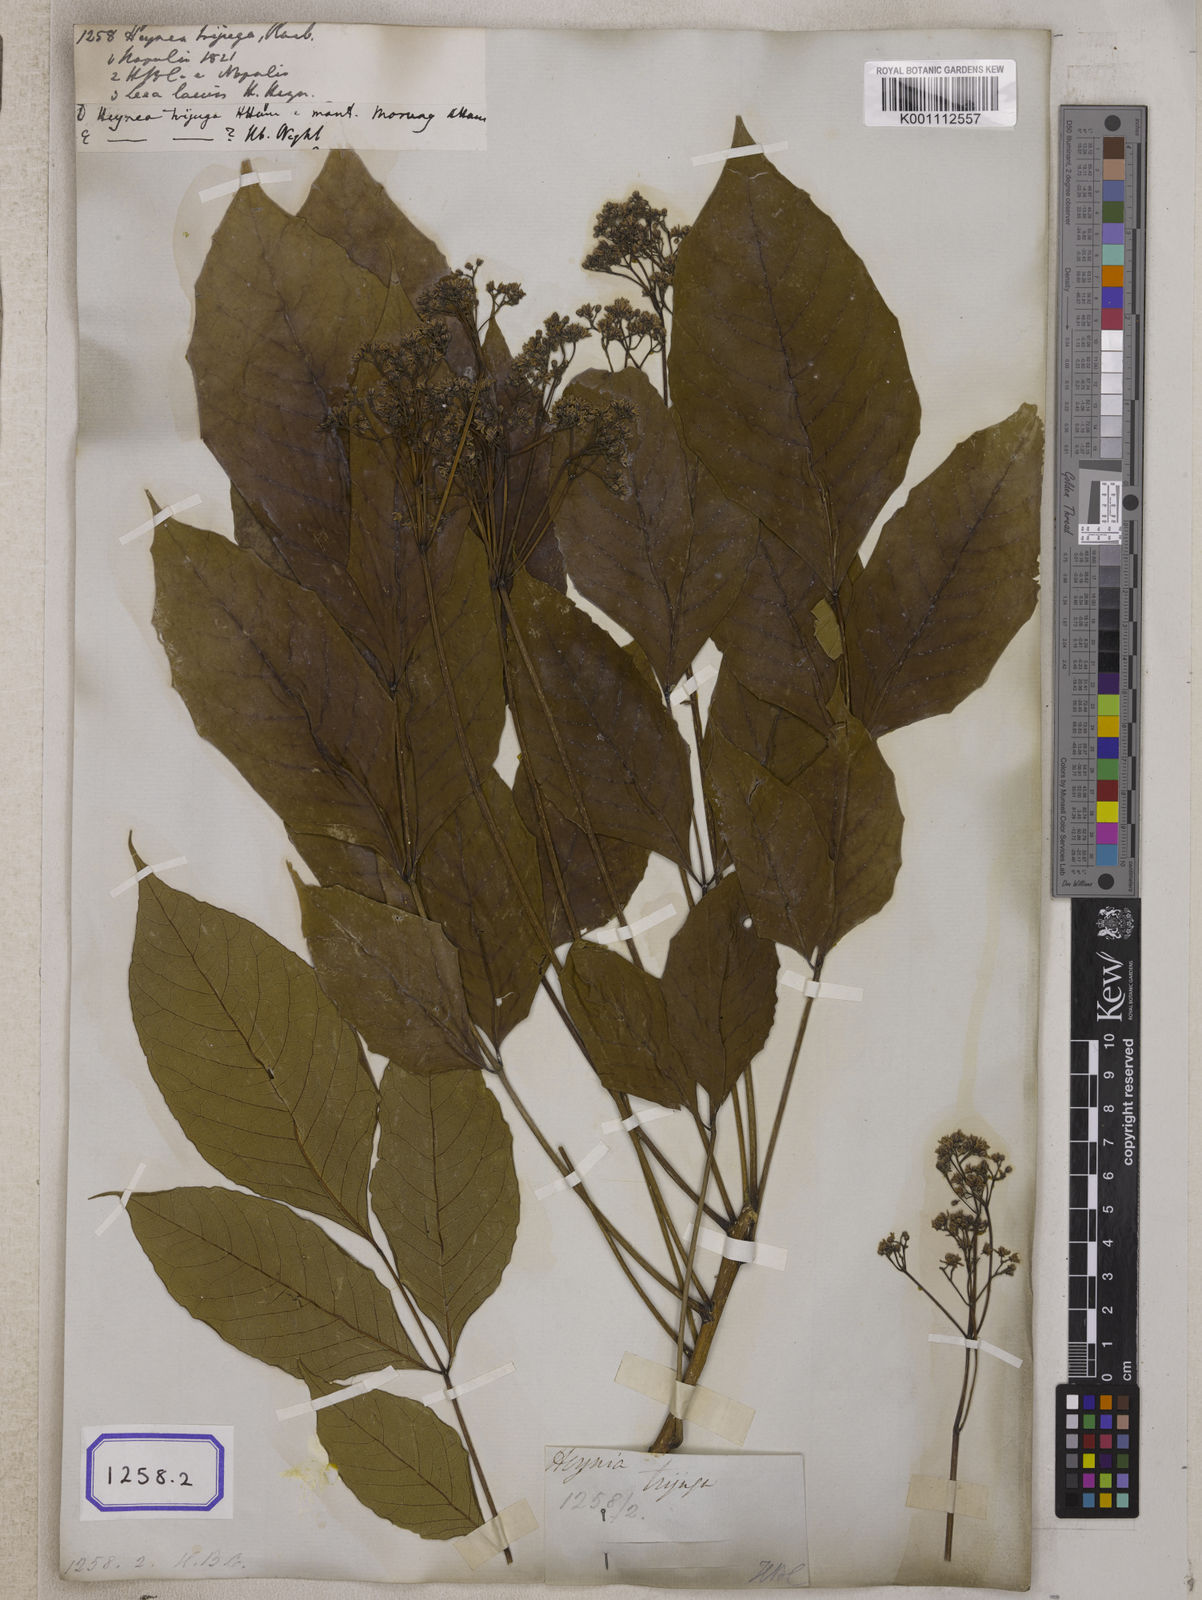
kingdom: Plantae
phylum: Tracheophyta
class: Magnoliopsida
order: Sapindales
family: Meliaceae
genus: Heynea
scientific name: Heynea trijuga
